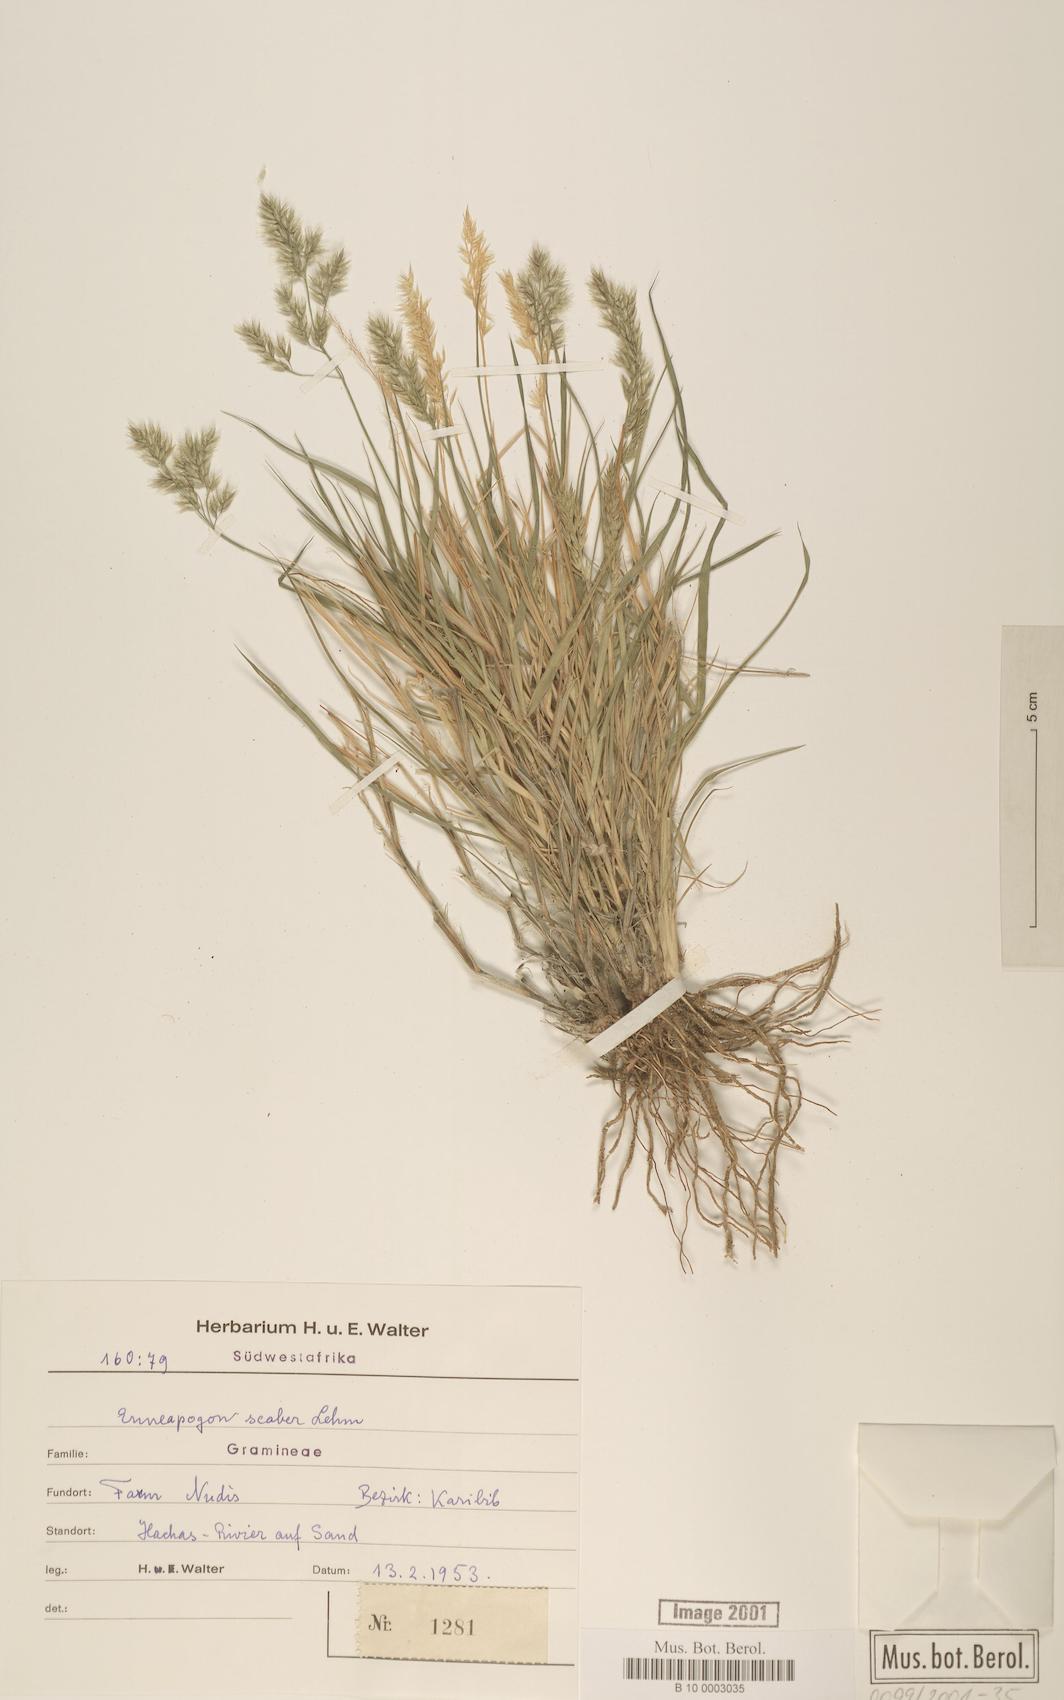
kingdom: Plantae
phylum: Tracheophyta
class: Liliopsida
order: Poales
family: Poaceae
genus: Enneapogon
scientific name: Enneapogon scaber
